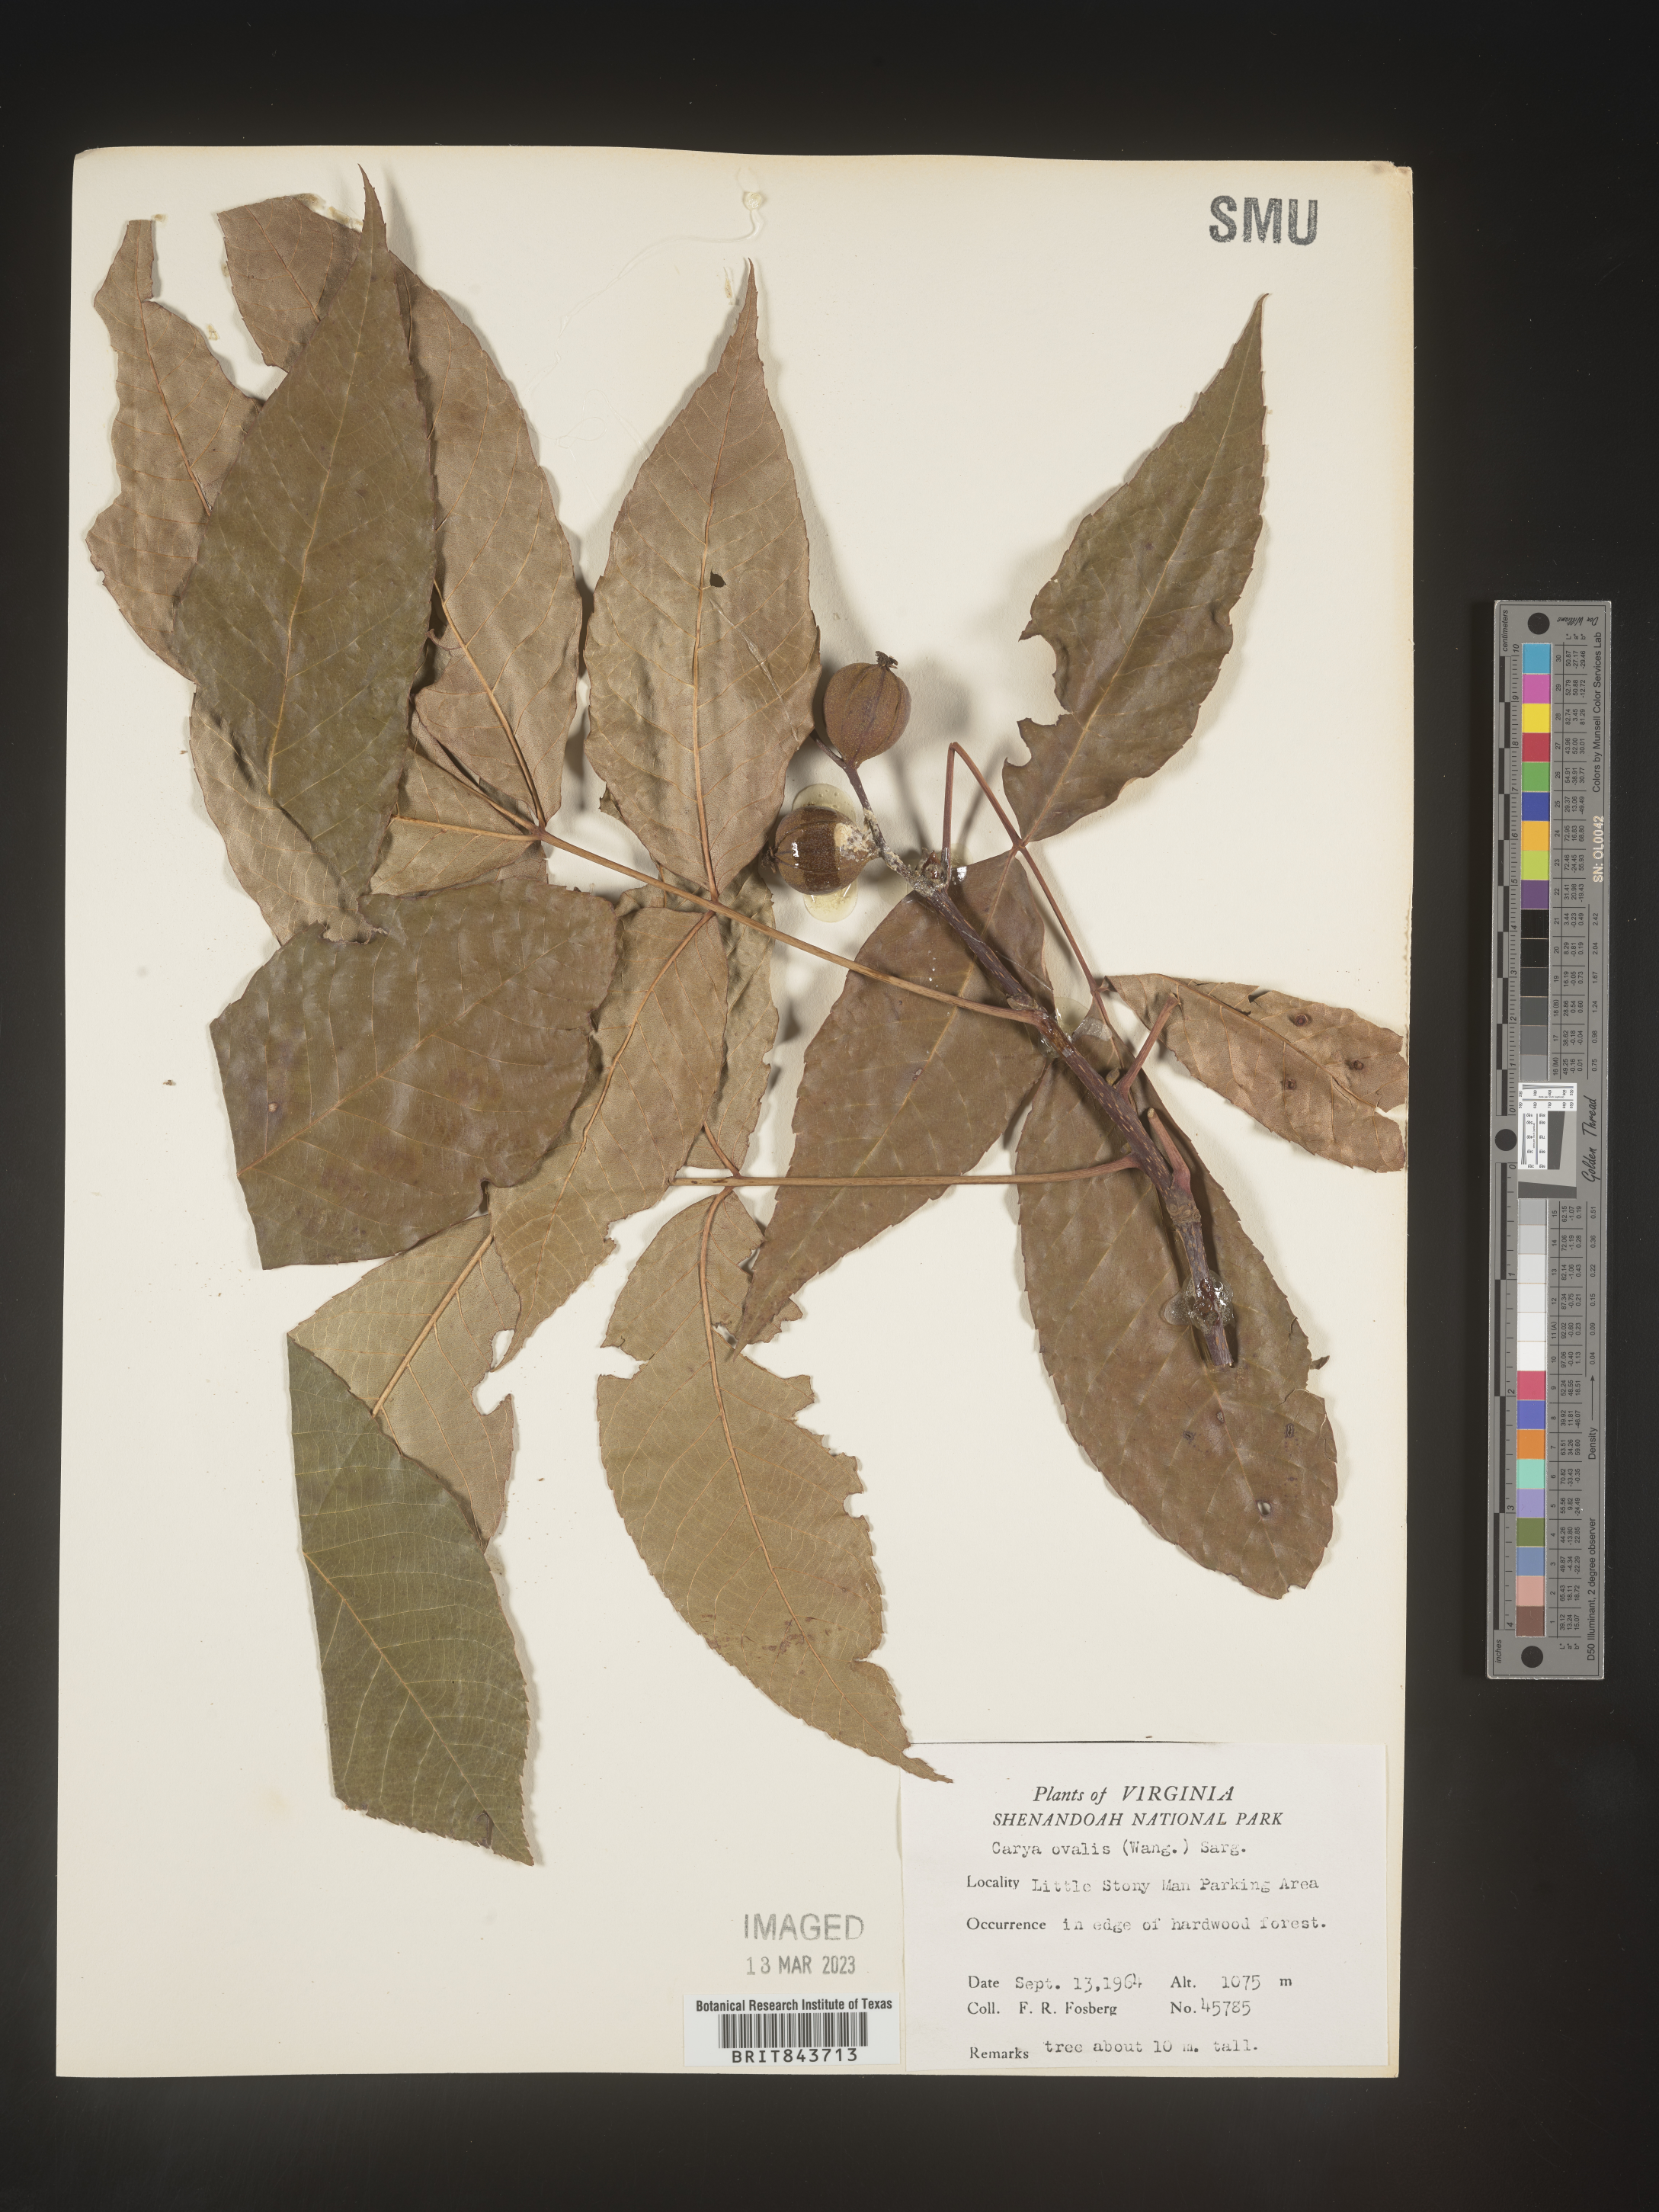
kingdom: Plantae
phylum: Tracheophyta
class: Magnoliopsida
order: Fagales
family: Juglandaceae
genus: Carya
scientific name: Carya ovalis
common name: False shagbark
